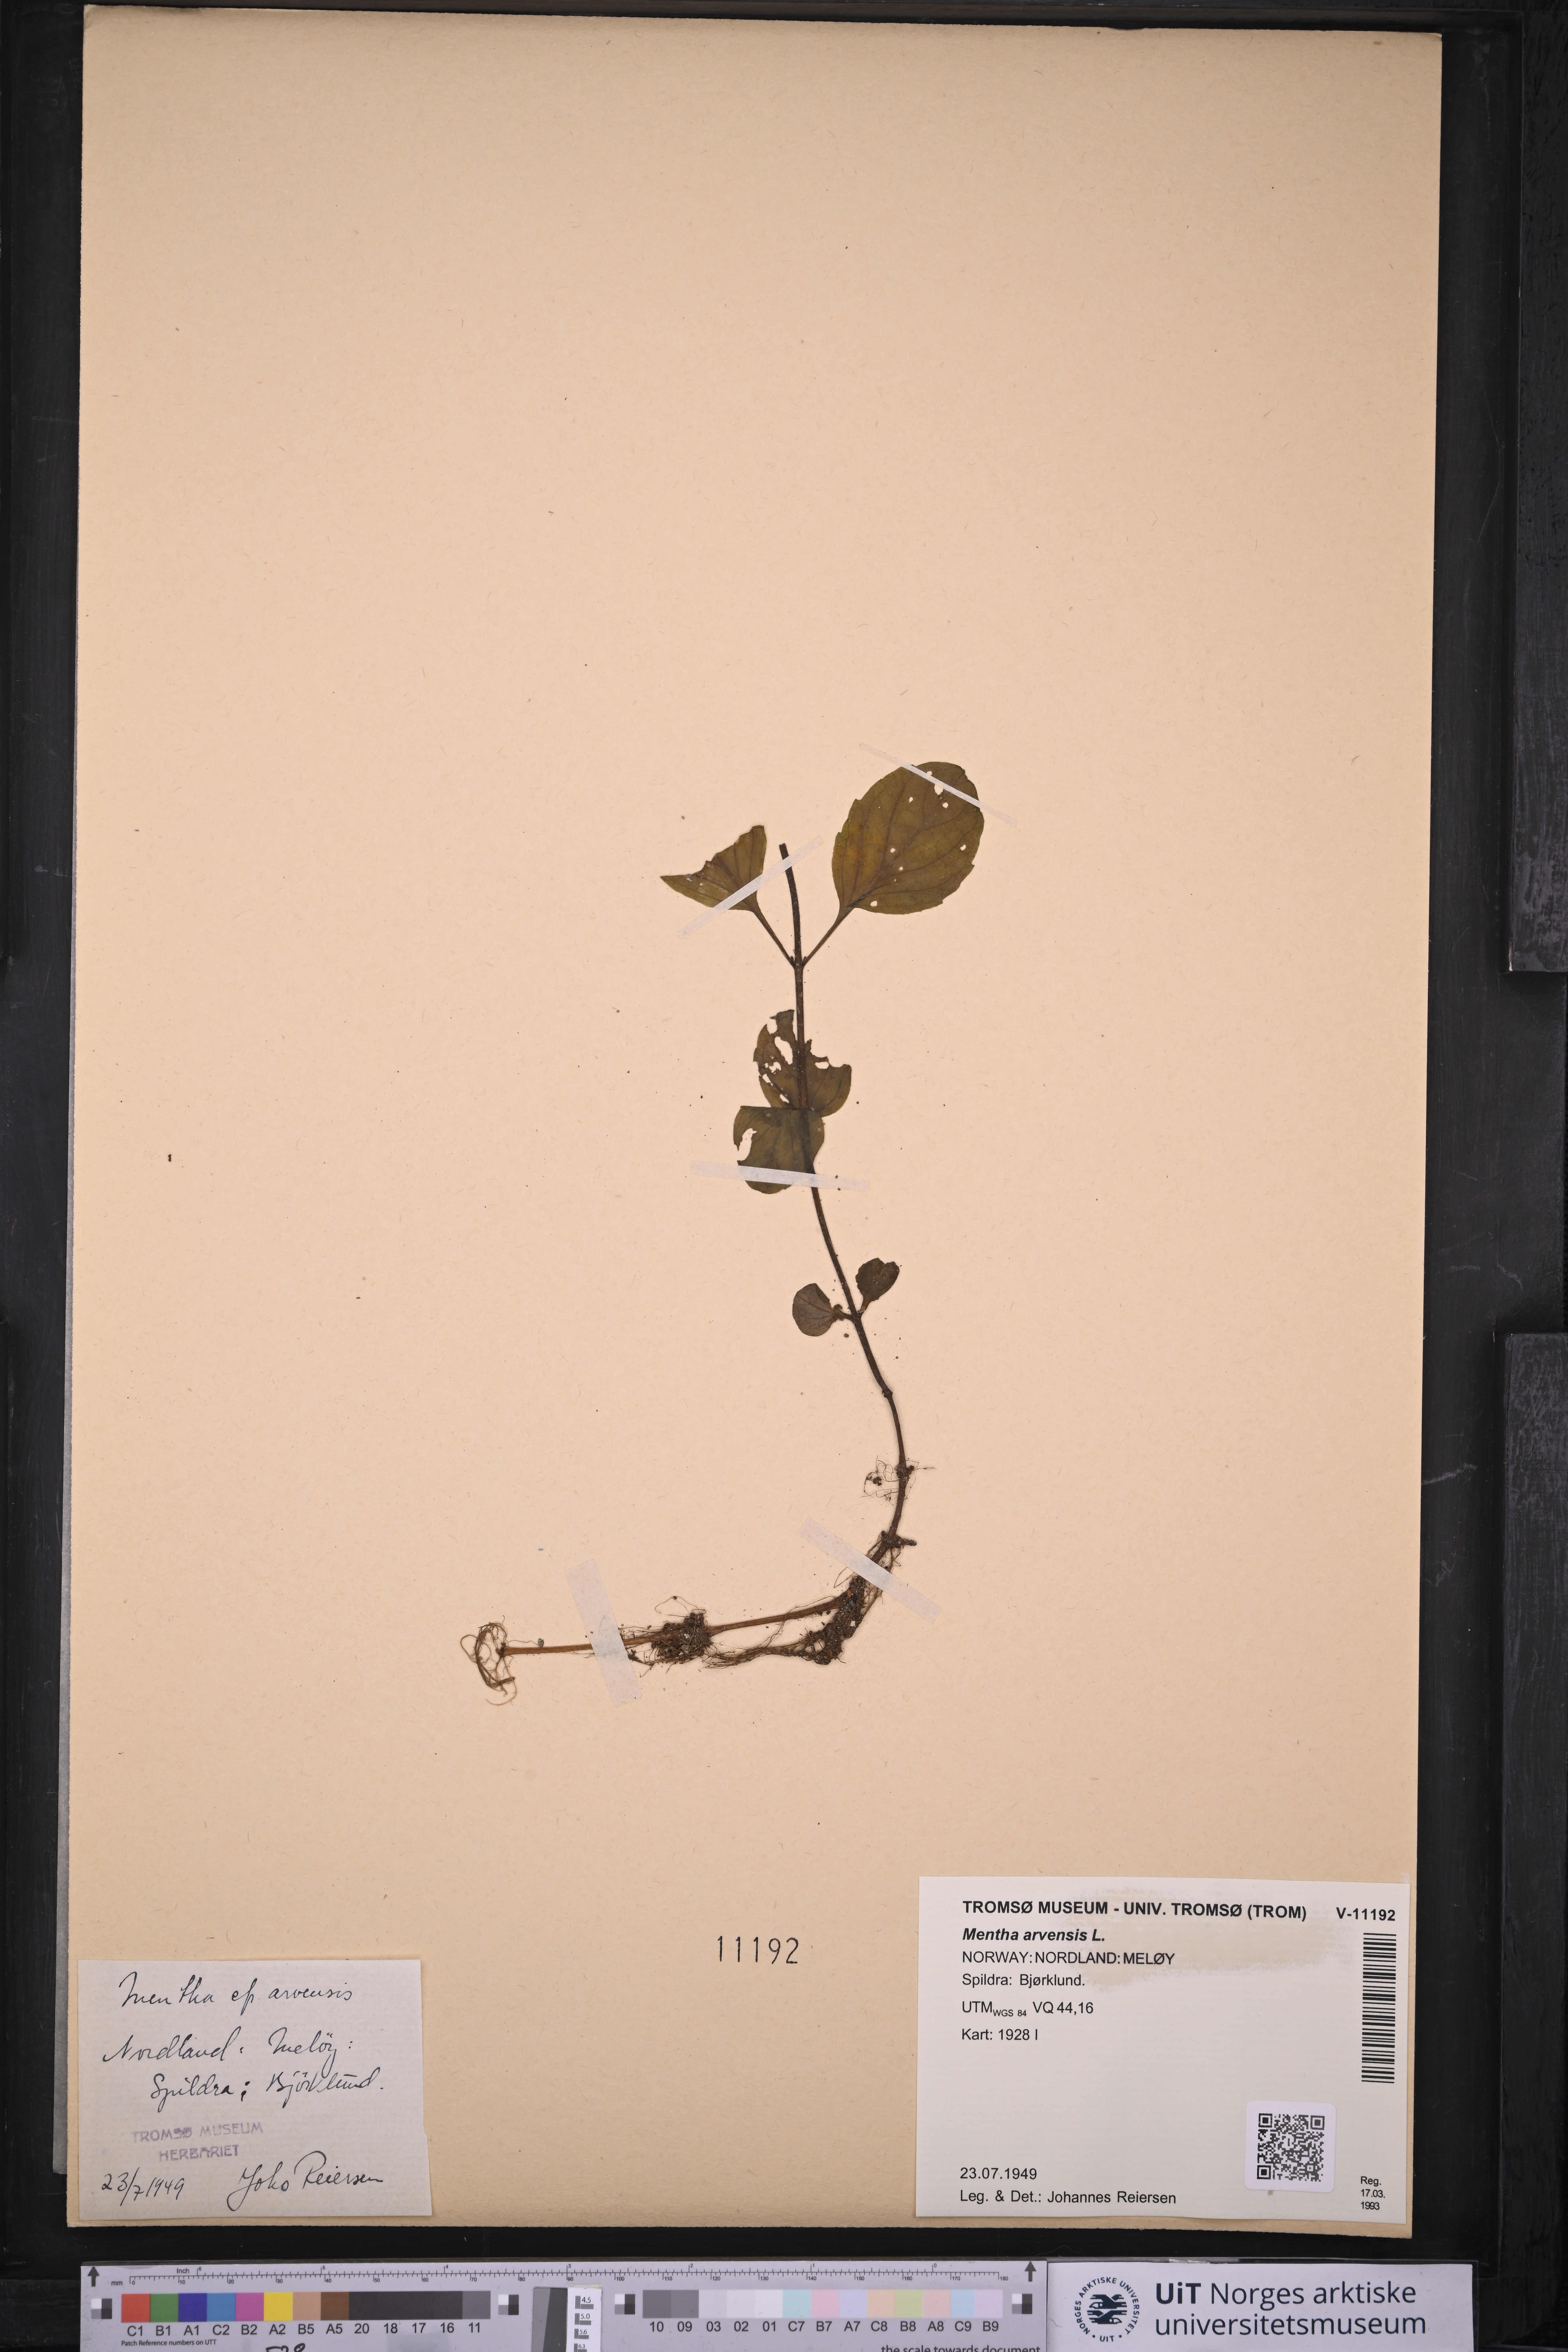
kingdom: Plantae
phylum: Tracheophyta
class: Magnoliopsida
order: Lamiales
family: Lamiaceae
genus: Mentha
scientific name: Mentha arvensis
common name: Corn mint
